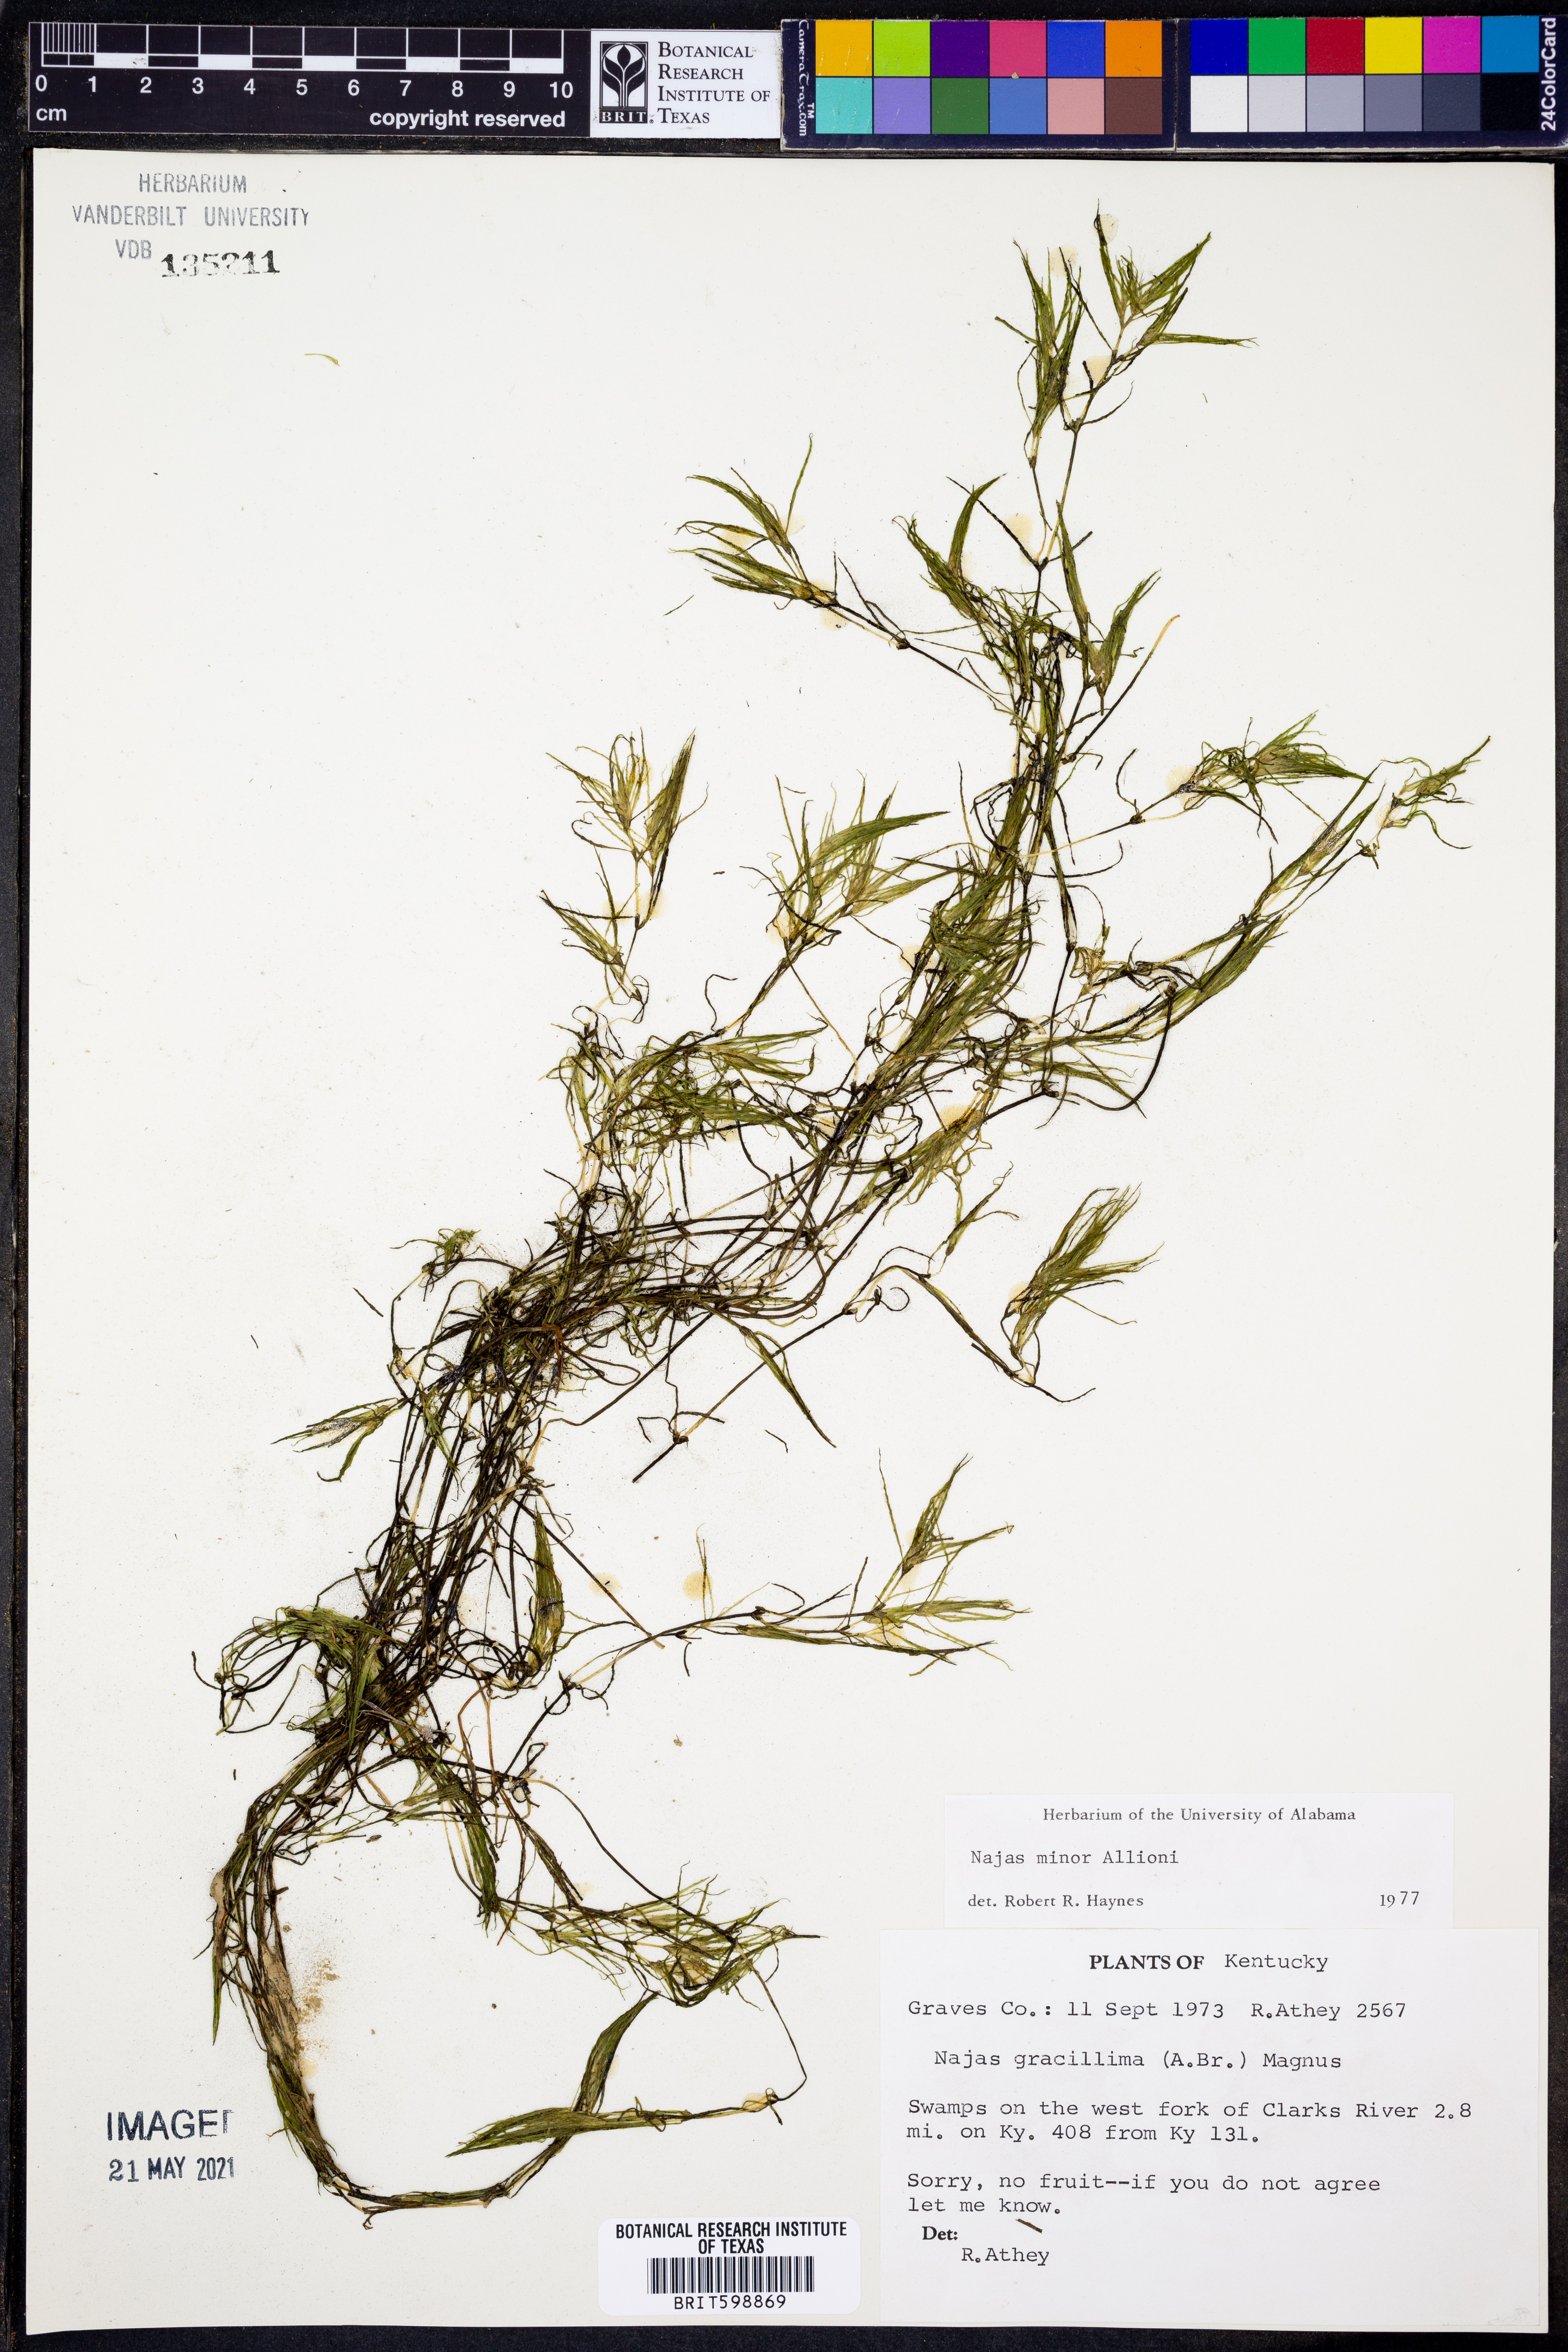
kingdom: Plantae
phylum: Tracheophyta
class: Liliopsida
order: Alismatales
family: Hydrocharitaceae
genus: Najas
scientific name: Najas minor
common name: Brittle naiad
